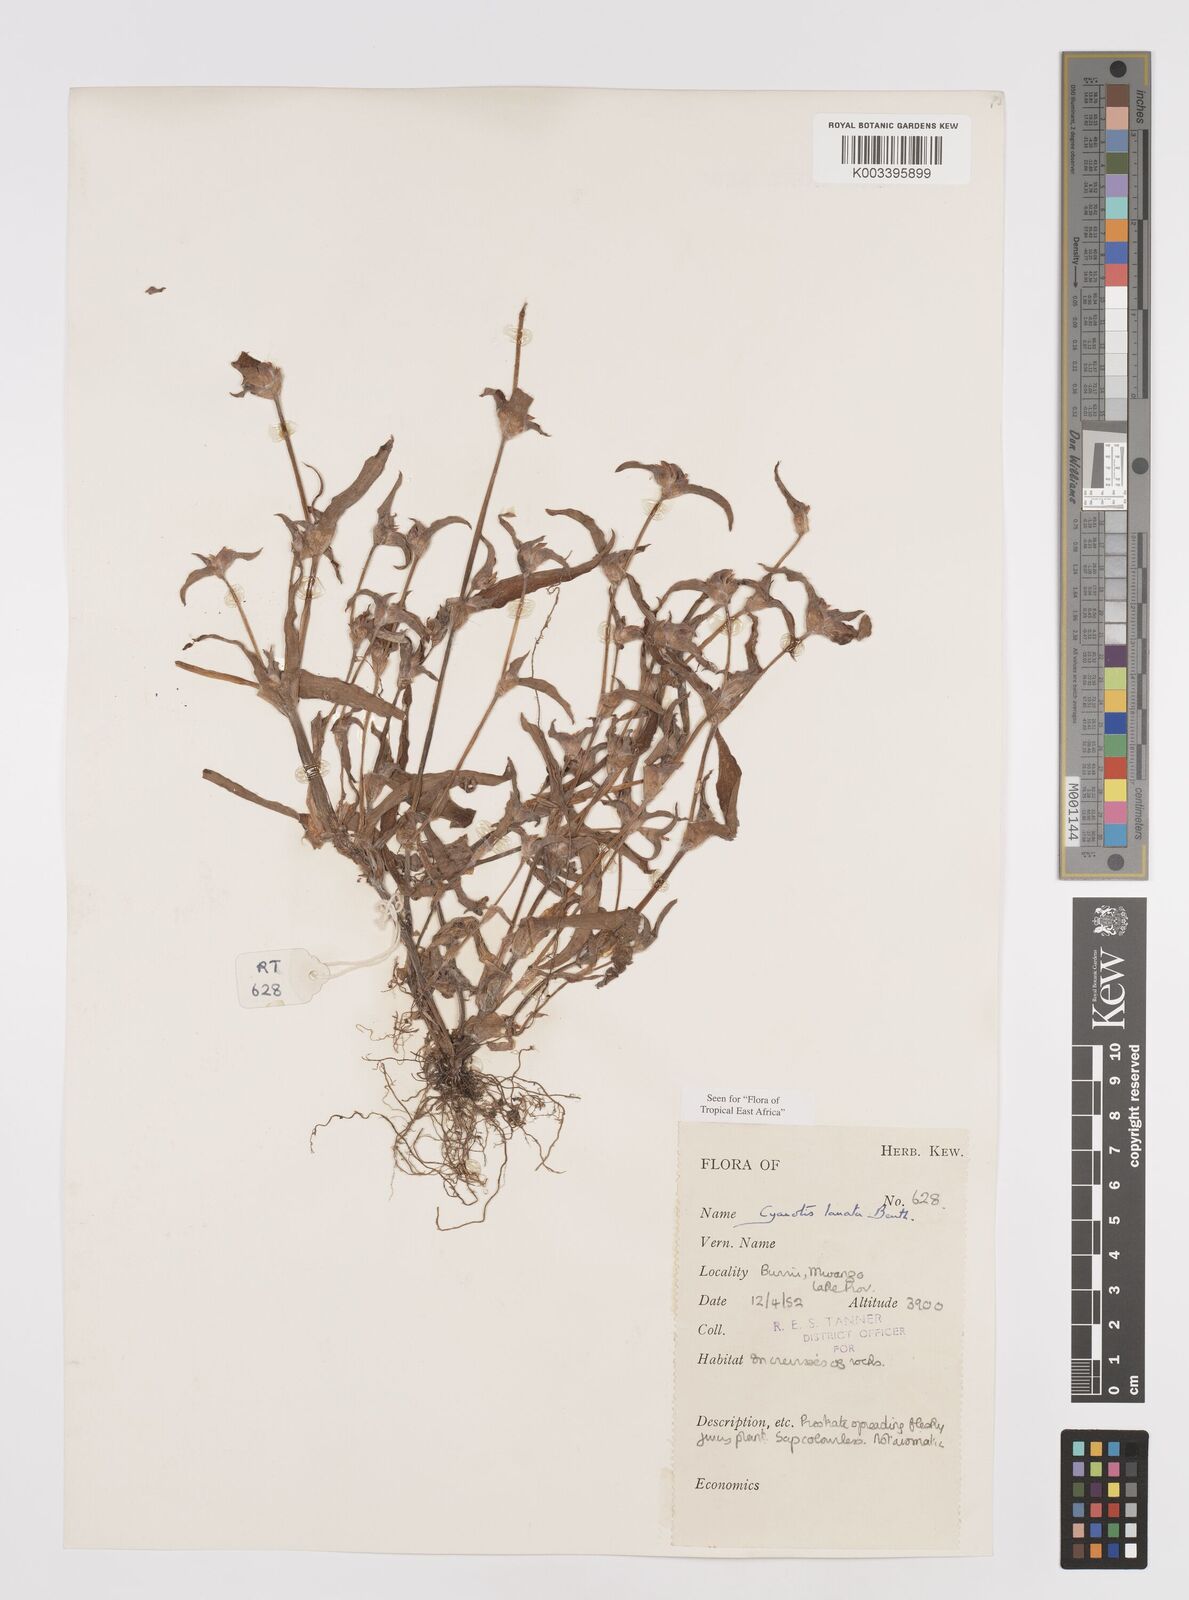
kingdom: Plantae
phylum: Tracheophyta
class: Liliopsida
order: Commelinales
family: Commelinaceae
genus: Cyanotis
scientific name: Cyanotis lanata
